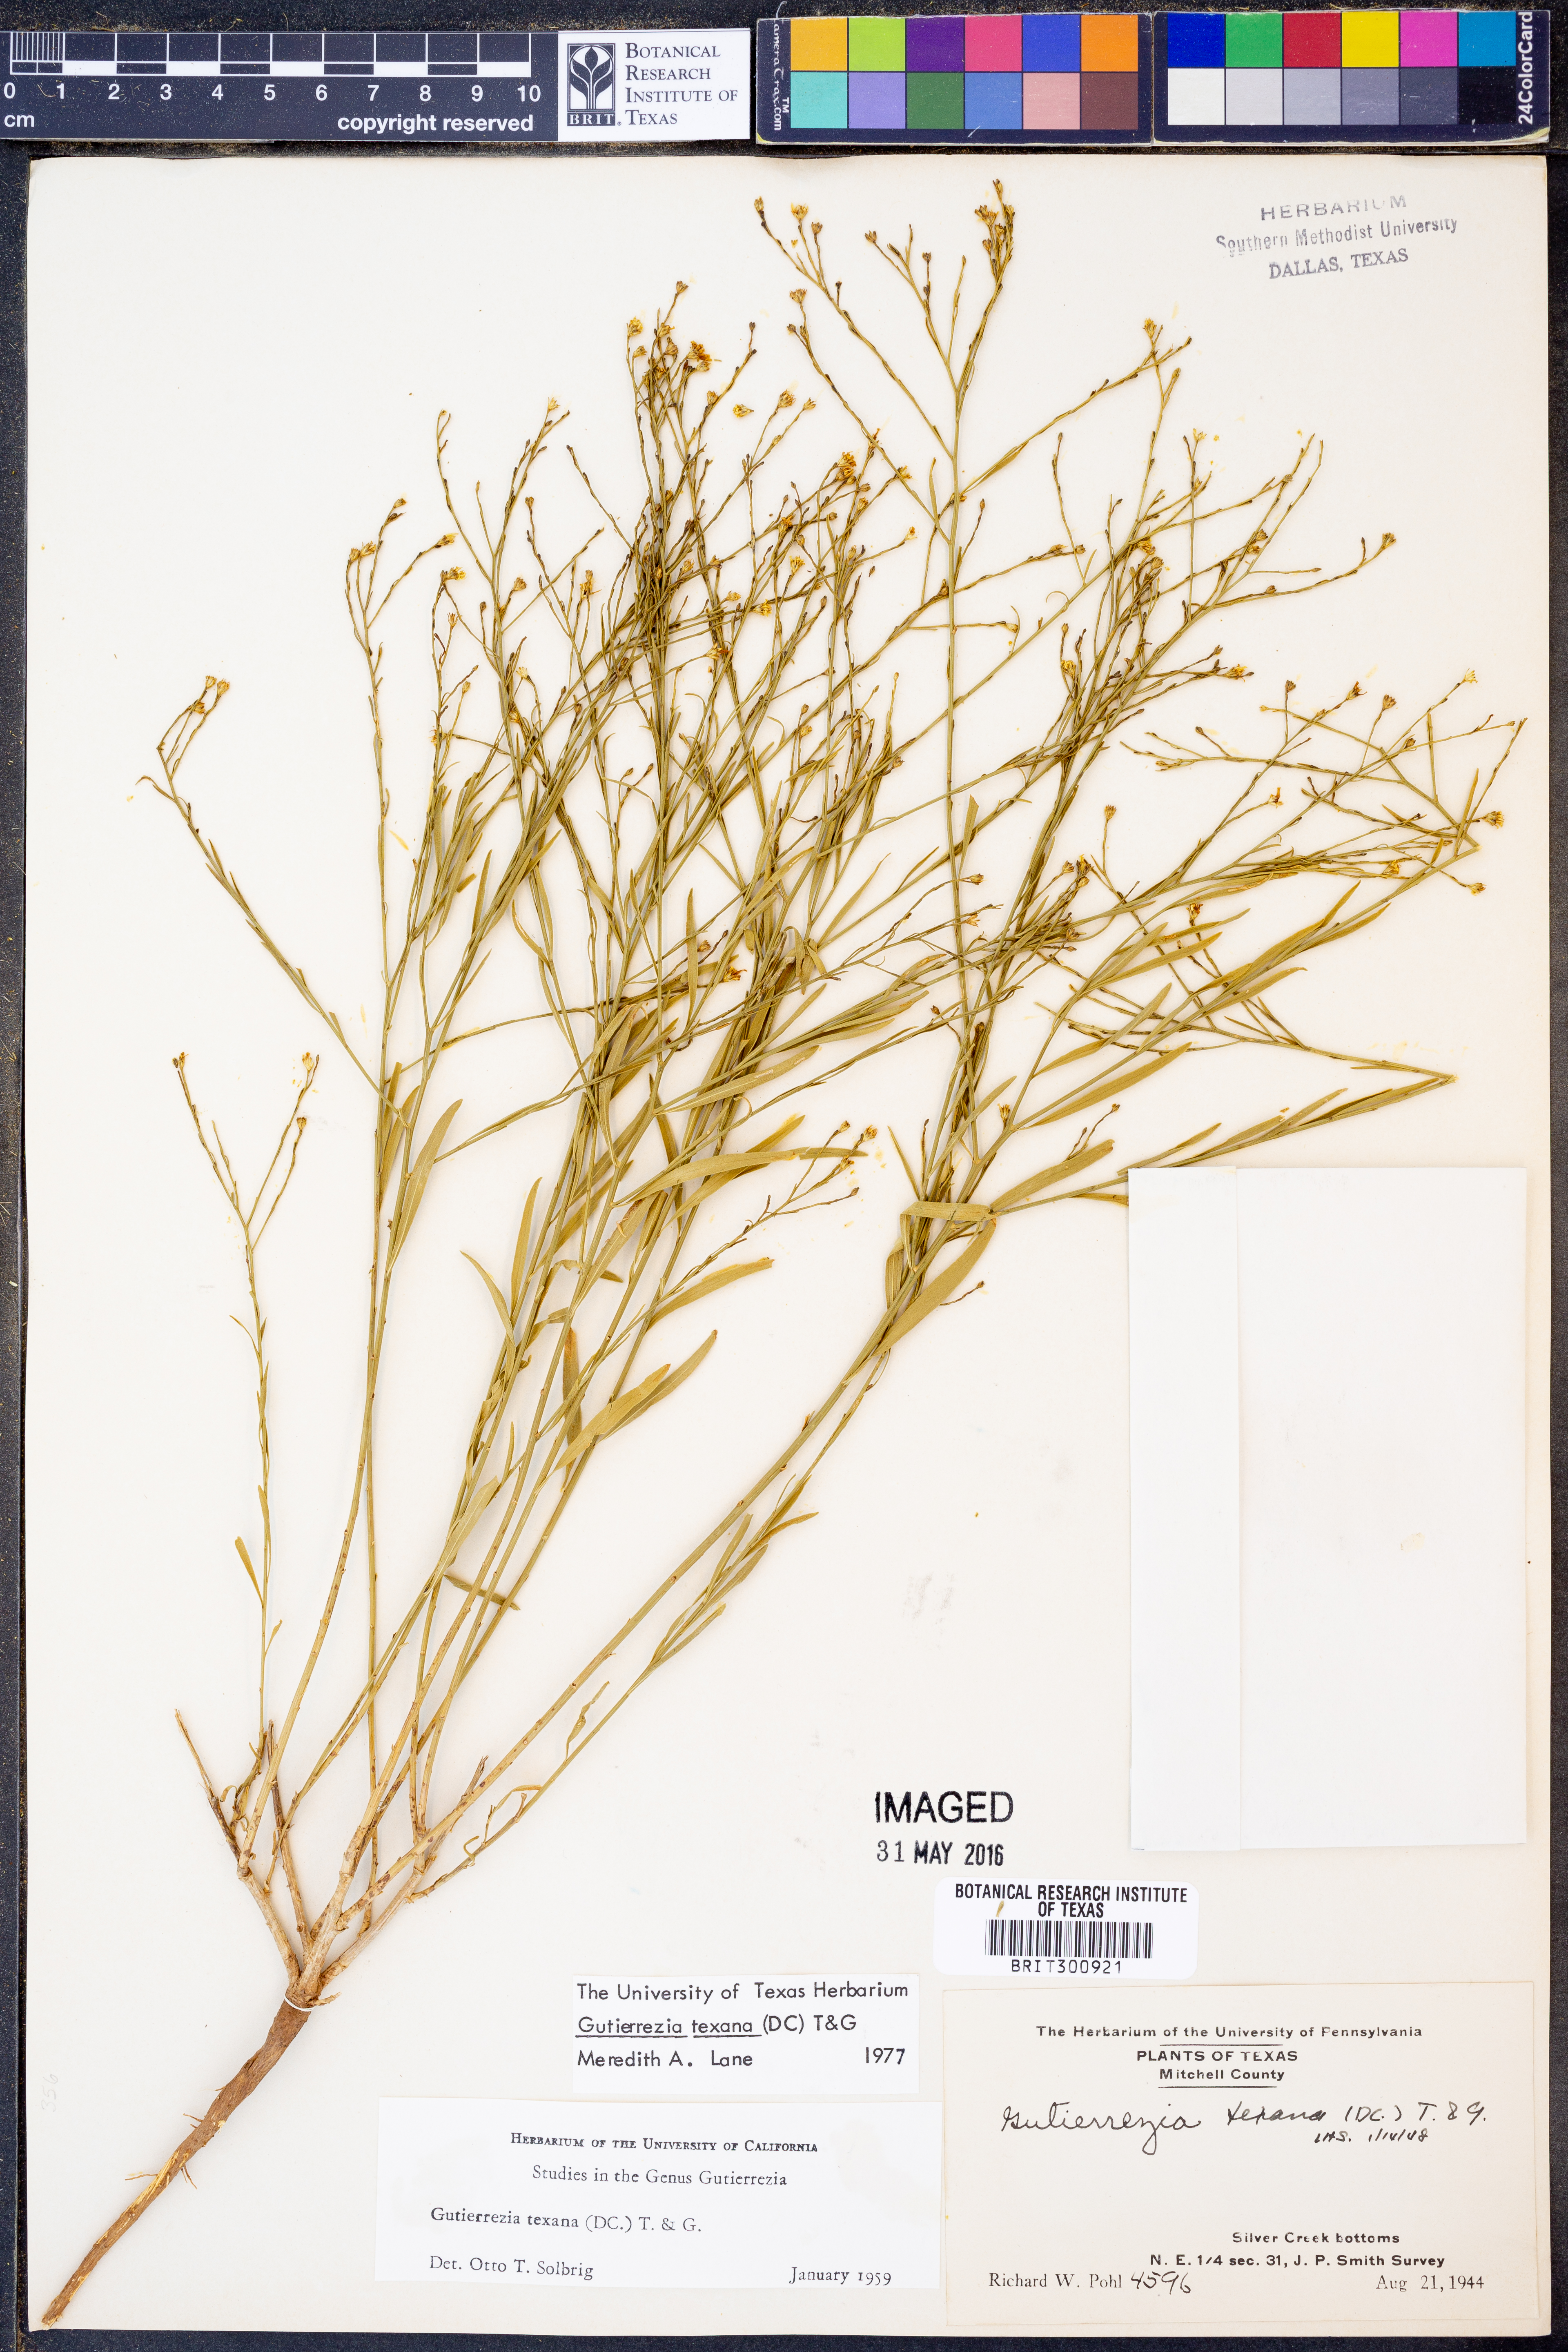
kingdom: Plantae
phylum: Tracheophyta
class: Magnoliopsida
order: Asterales
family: Asteraceae
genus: Gutierrezia
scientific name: Gutierrezia texana
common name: Texas snakeweed
